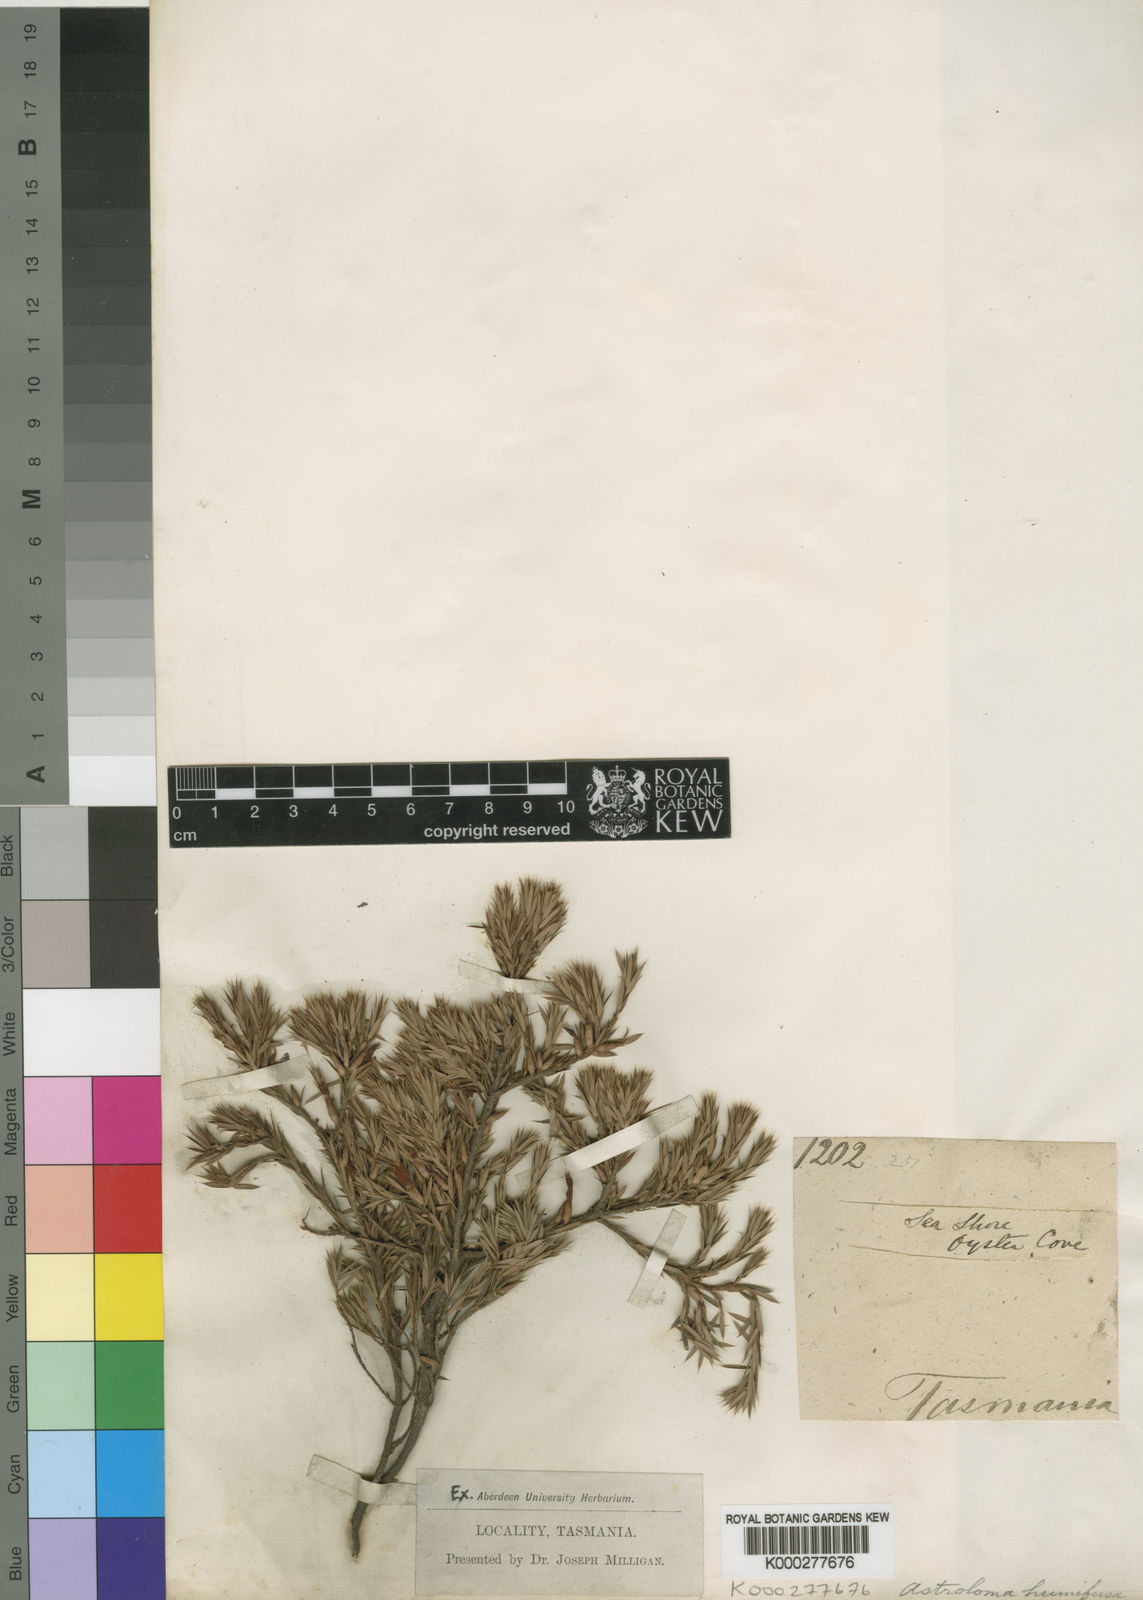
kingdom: Plantae
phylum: Tracheophyta
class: Magnoliopsida
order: Ericales
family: Ericaceae
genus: Styphelia
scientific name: Styphelia humifusa
